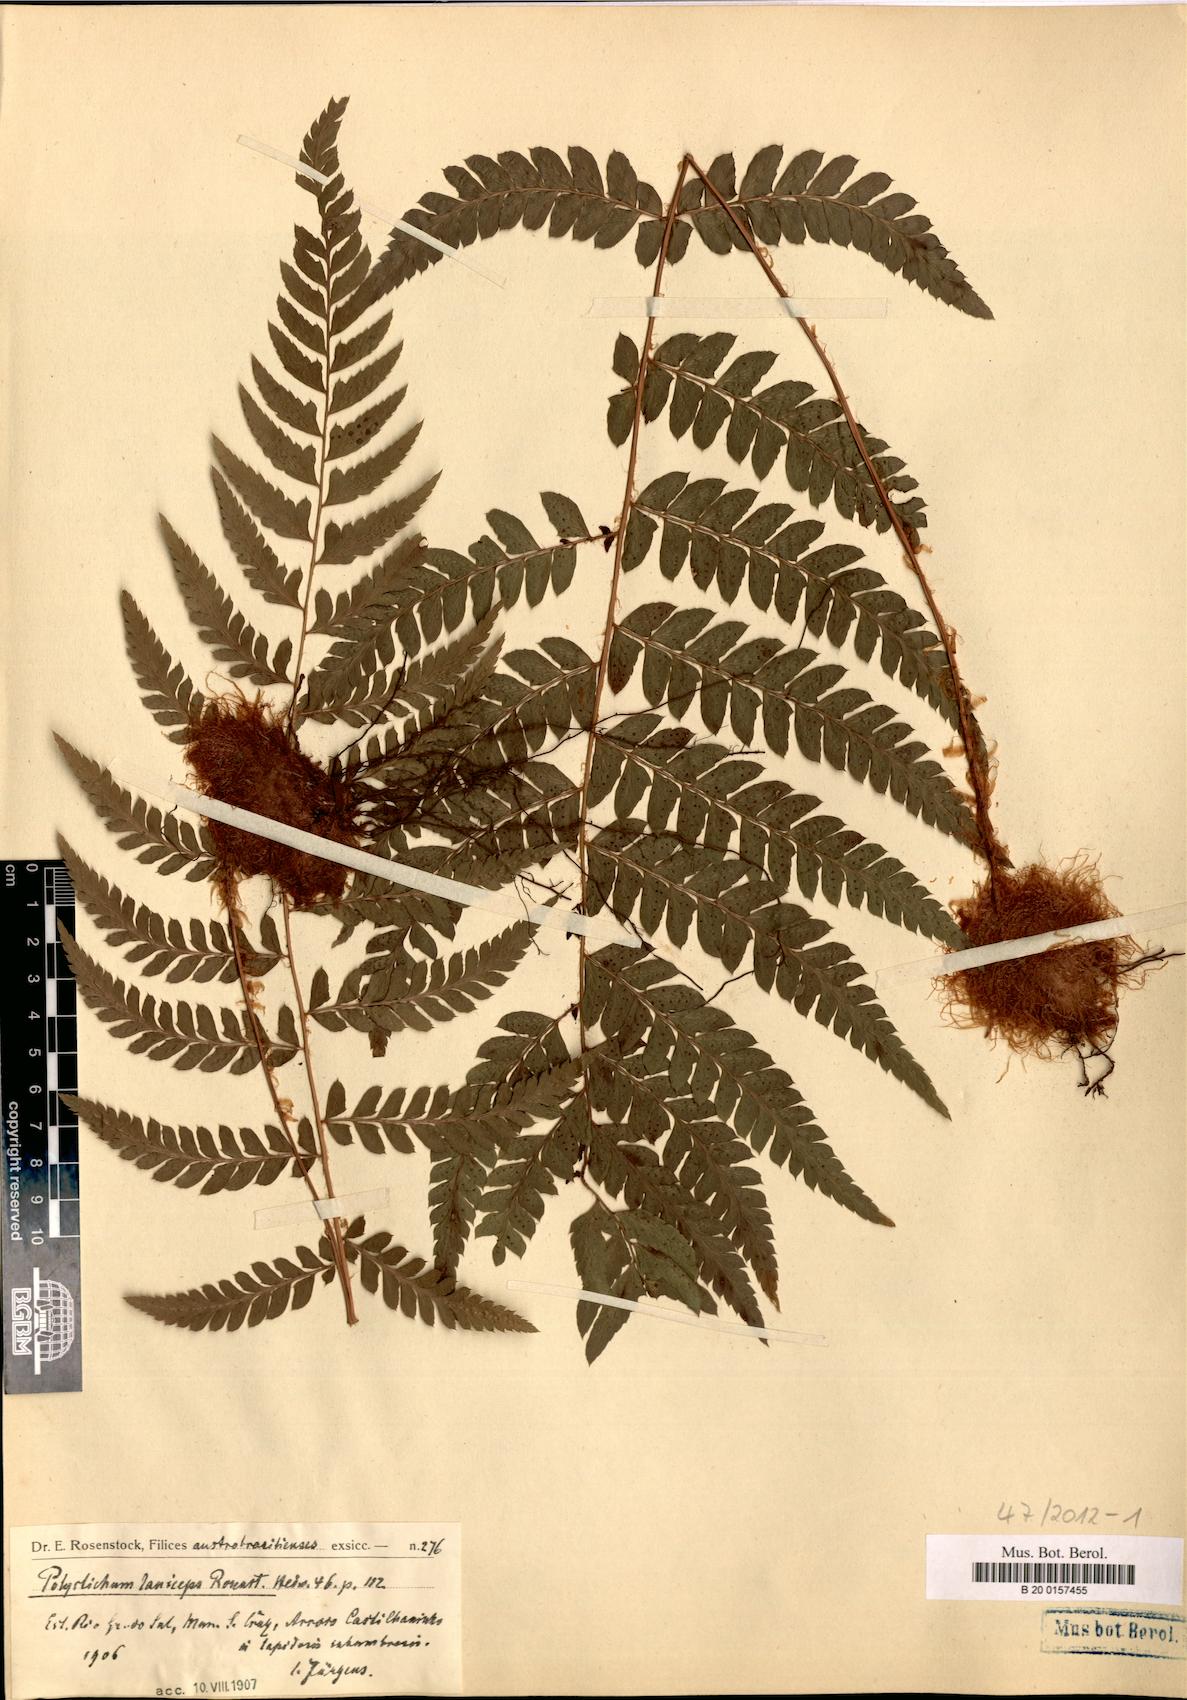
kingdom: Plantae
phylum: Tracheophyta
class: Polypodiopsida
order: Polypodiales
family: Dryopteridaceae
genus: Polystichum
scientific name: Polystichum laniceps
